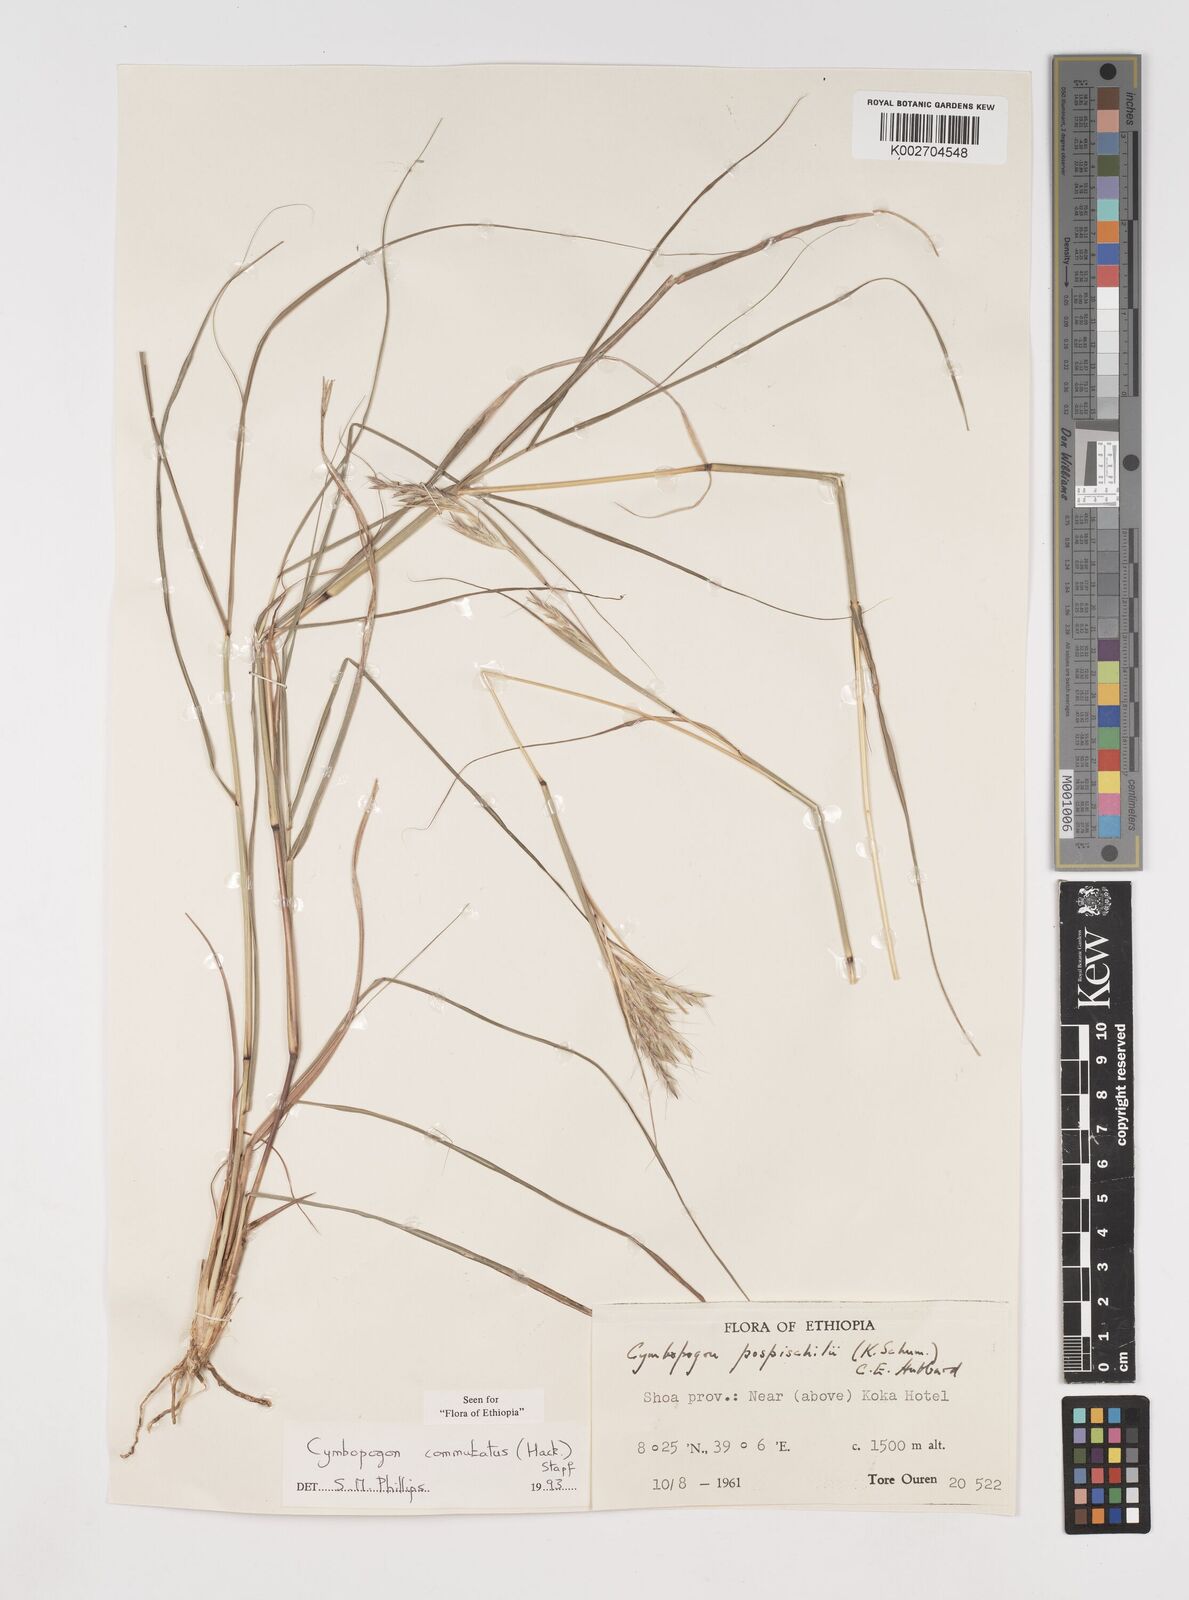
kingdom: Plantae
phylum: Tracheophyta
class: Liliopsida
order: Poales
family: Poaceae
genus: Cymbopogon
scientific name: Cymbopogon
